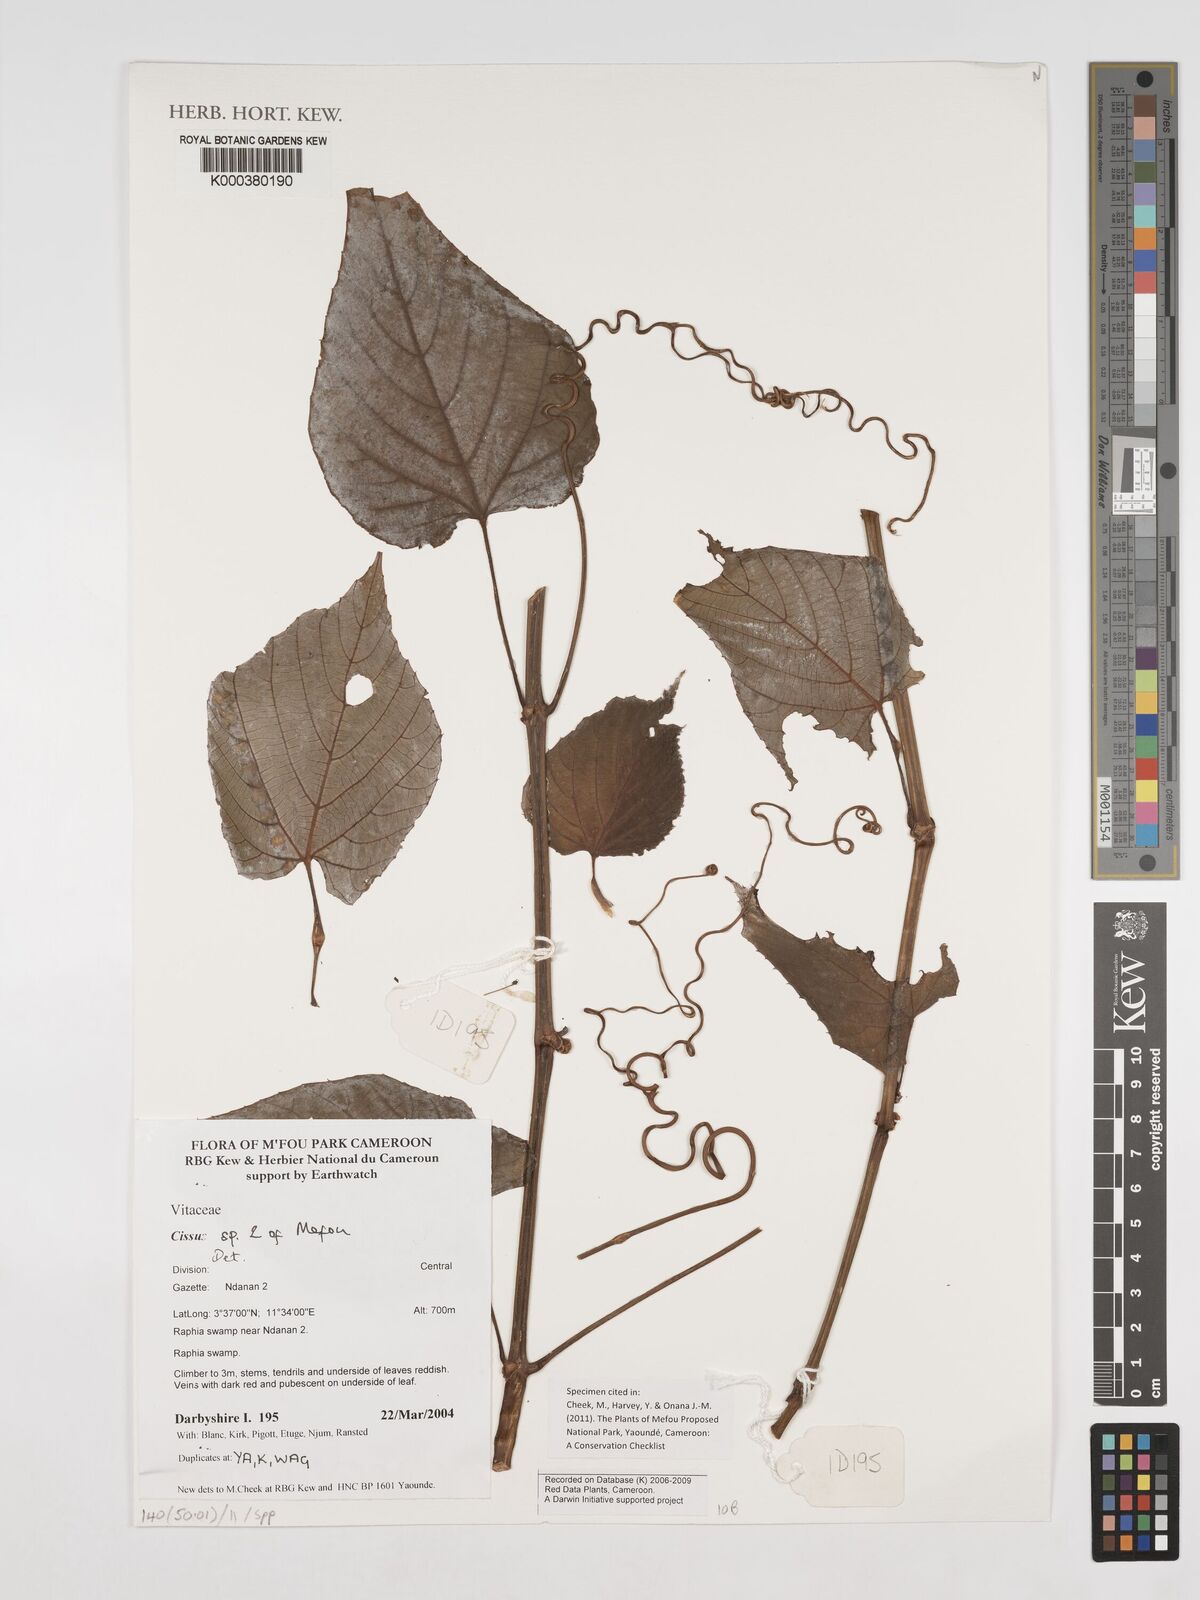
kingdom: Plantae
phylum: Tracheophyta
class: Magnoliopsida
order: Vitales
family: Vitaceae
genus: Cissus
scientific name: Cissus
